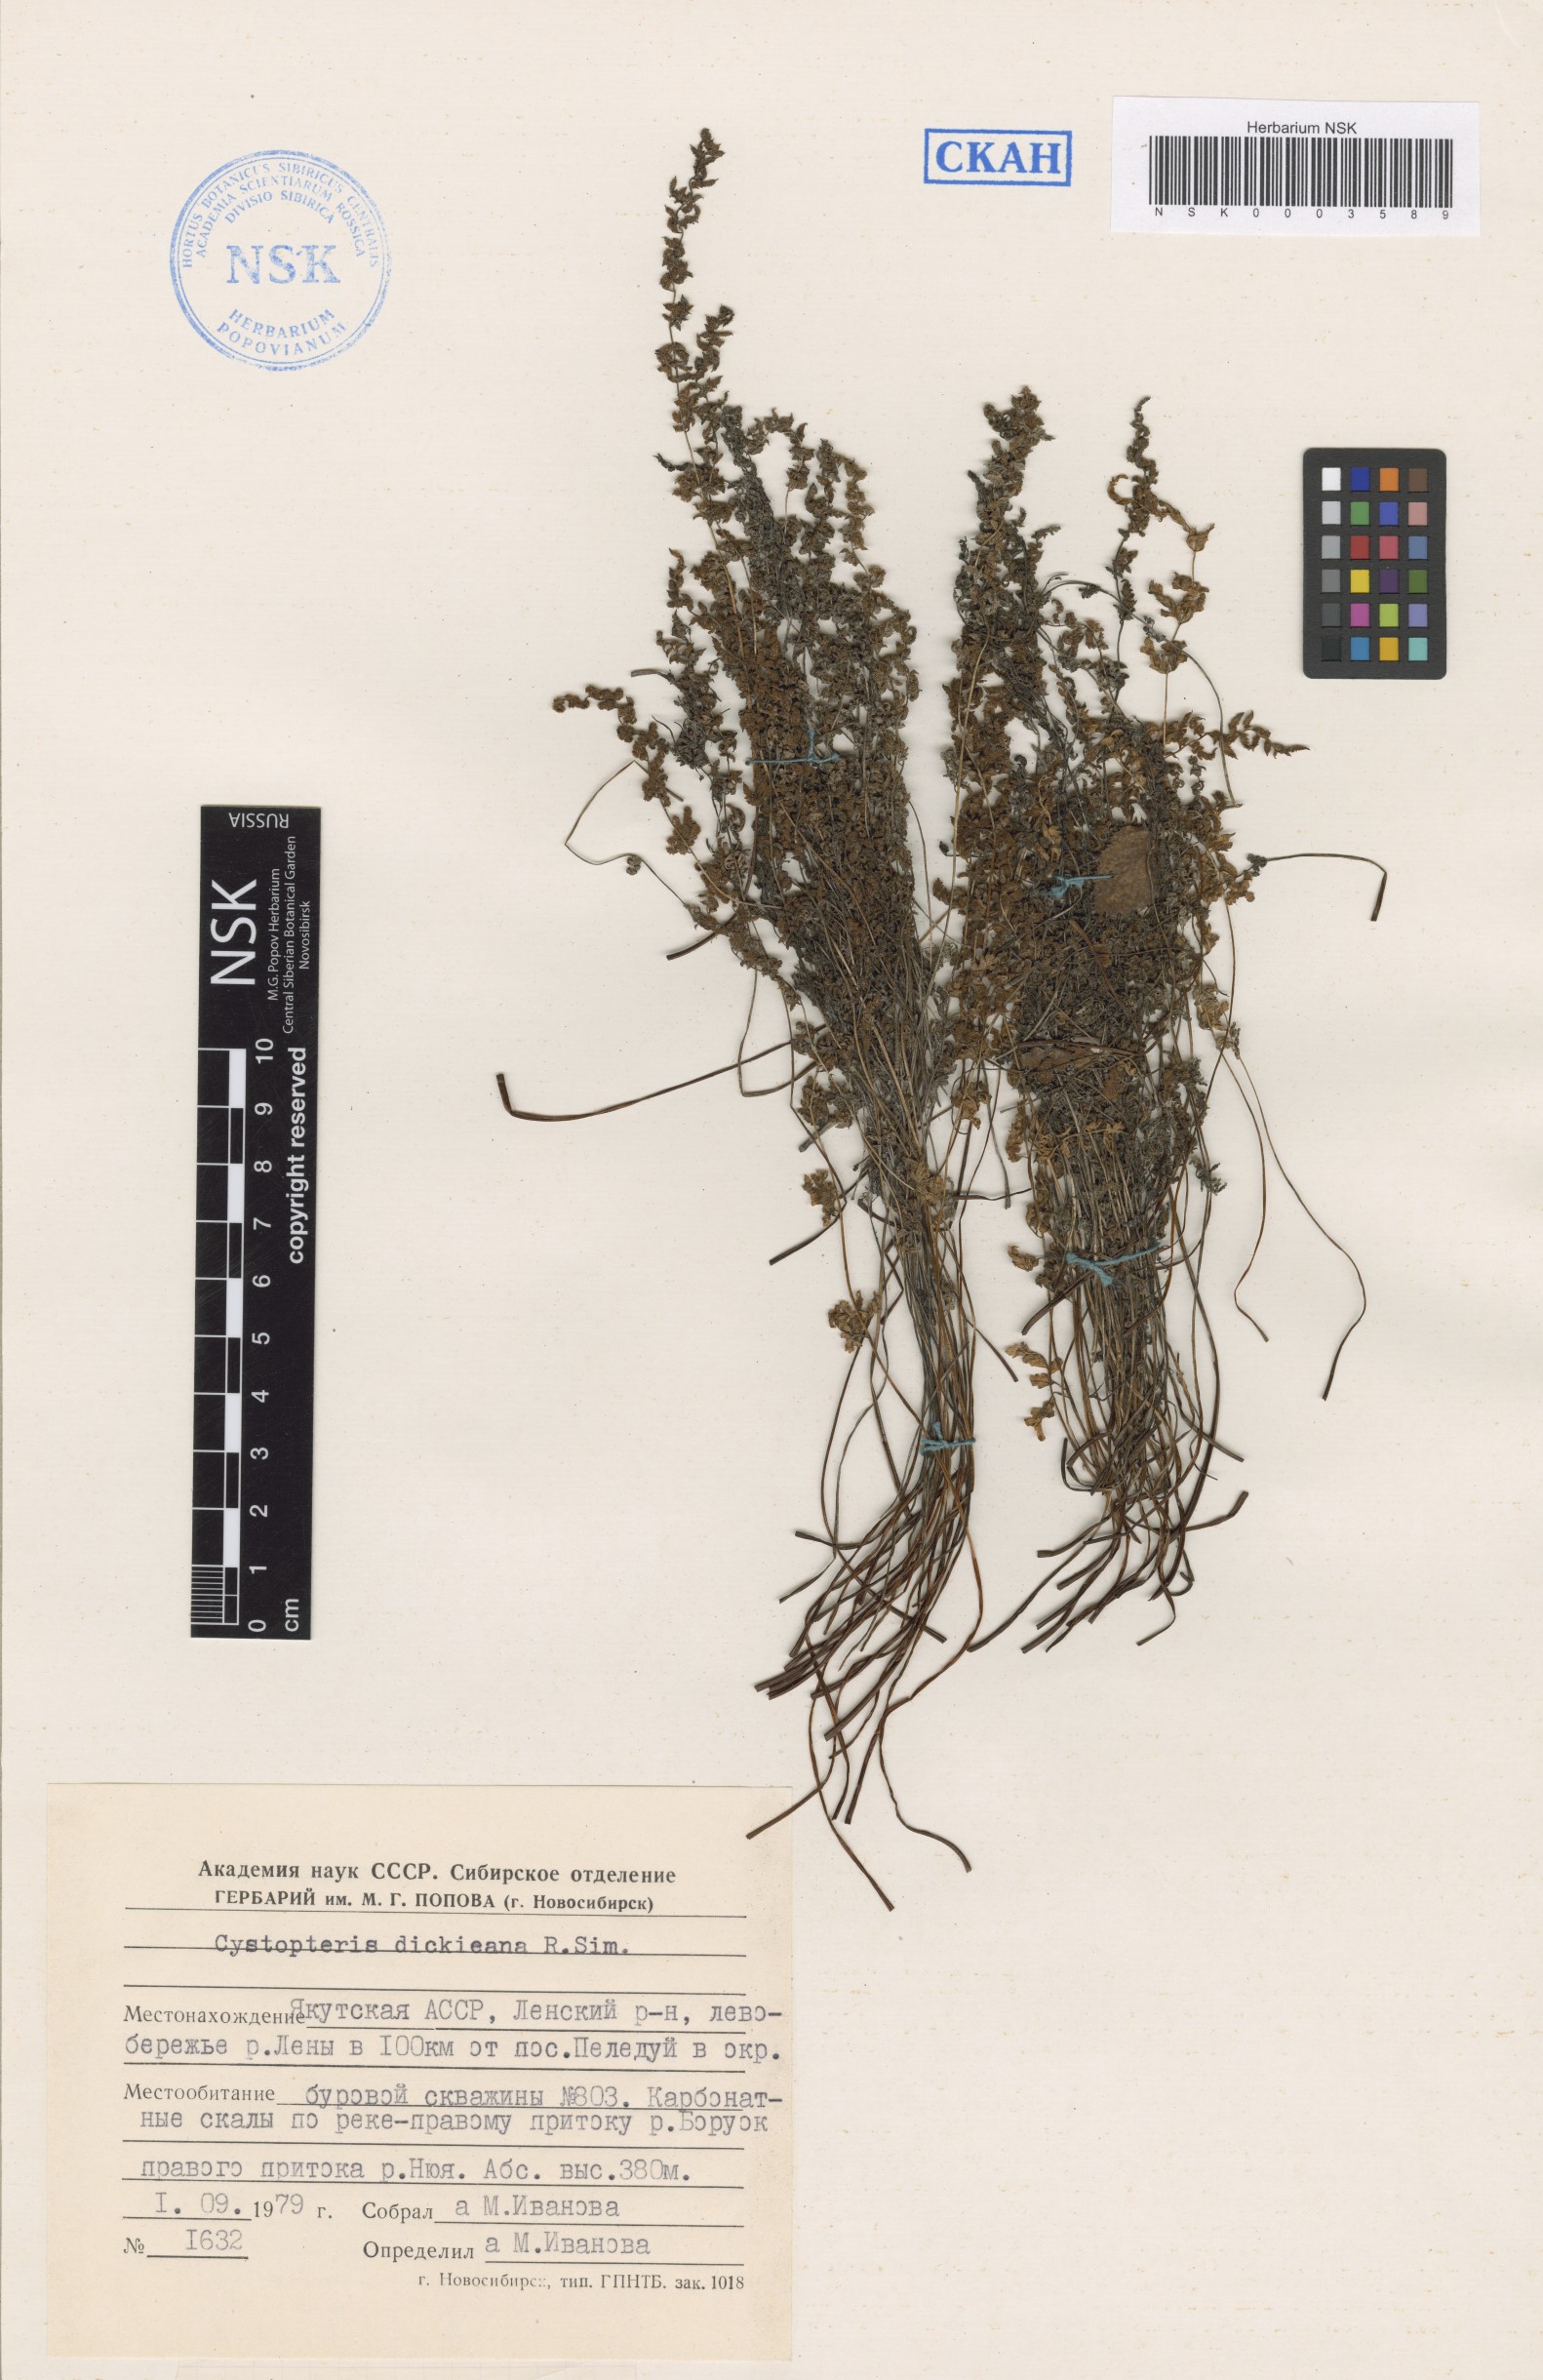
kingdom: Plantae
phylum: Tracheophyta
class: Polypodiopsida
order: Polypodiales
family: Cystopteridaceae
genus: Cystopteris
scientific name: Cystopteris dickieana
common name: Dickie's bladder-fern
